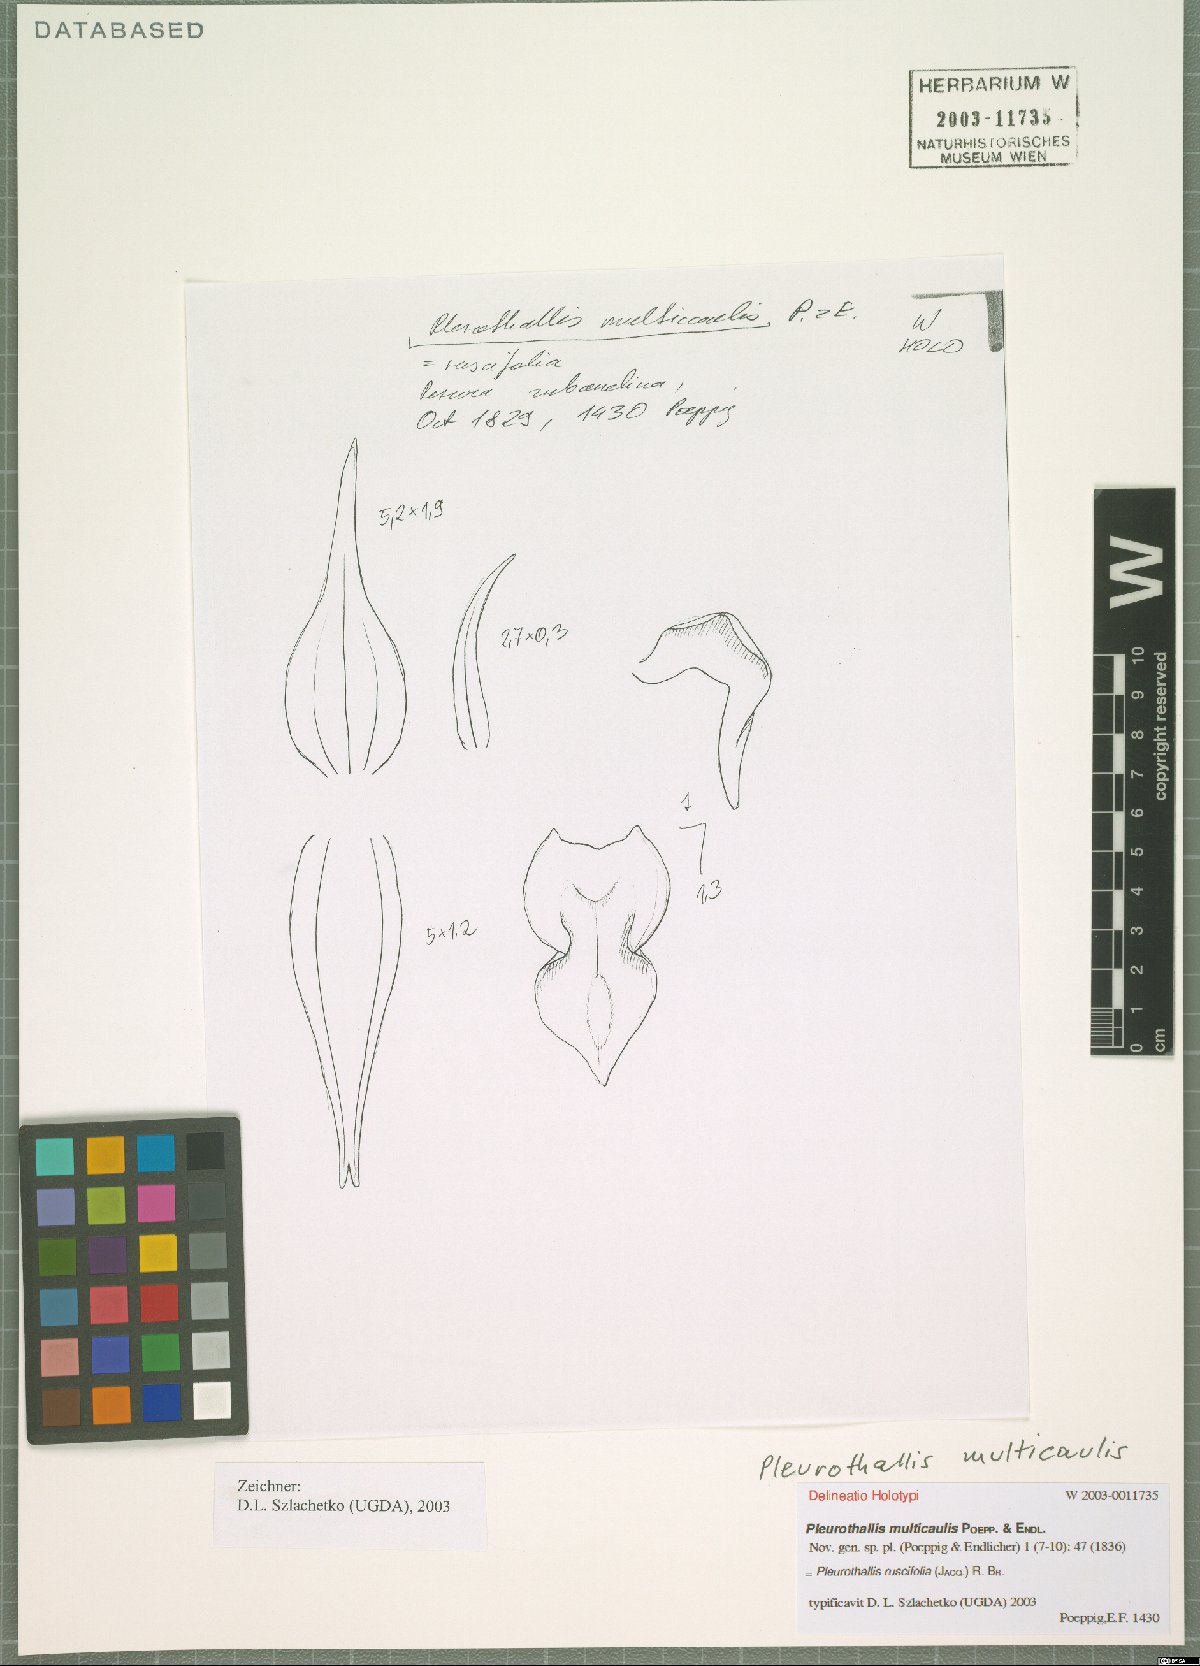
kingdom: Plantae
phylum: Tracheophyta
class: Liliopsida
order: Asparagales
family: Orchidaceae
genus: Pleurothallis
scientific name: Pleurothallis ruscifolia
